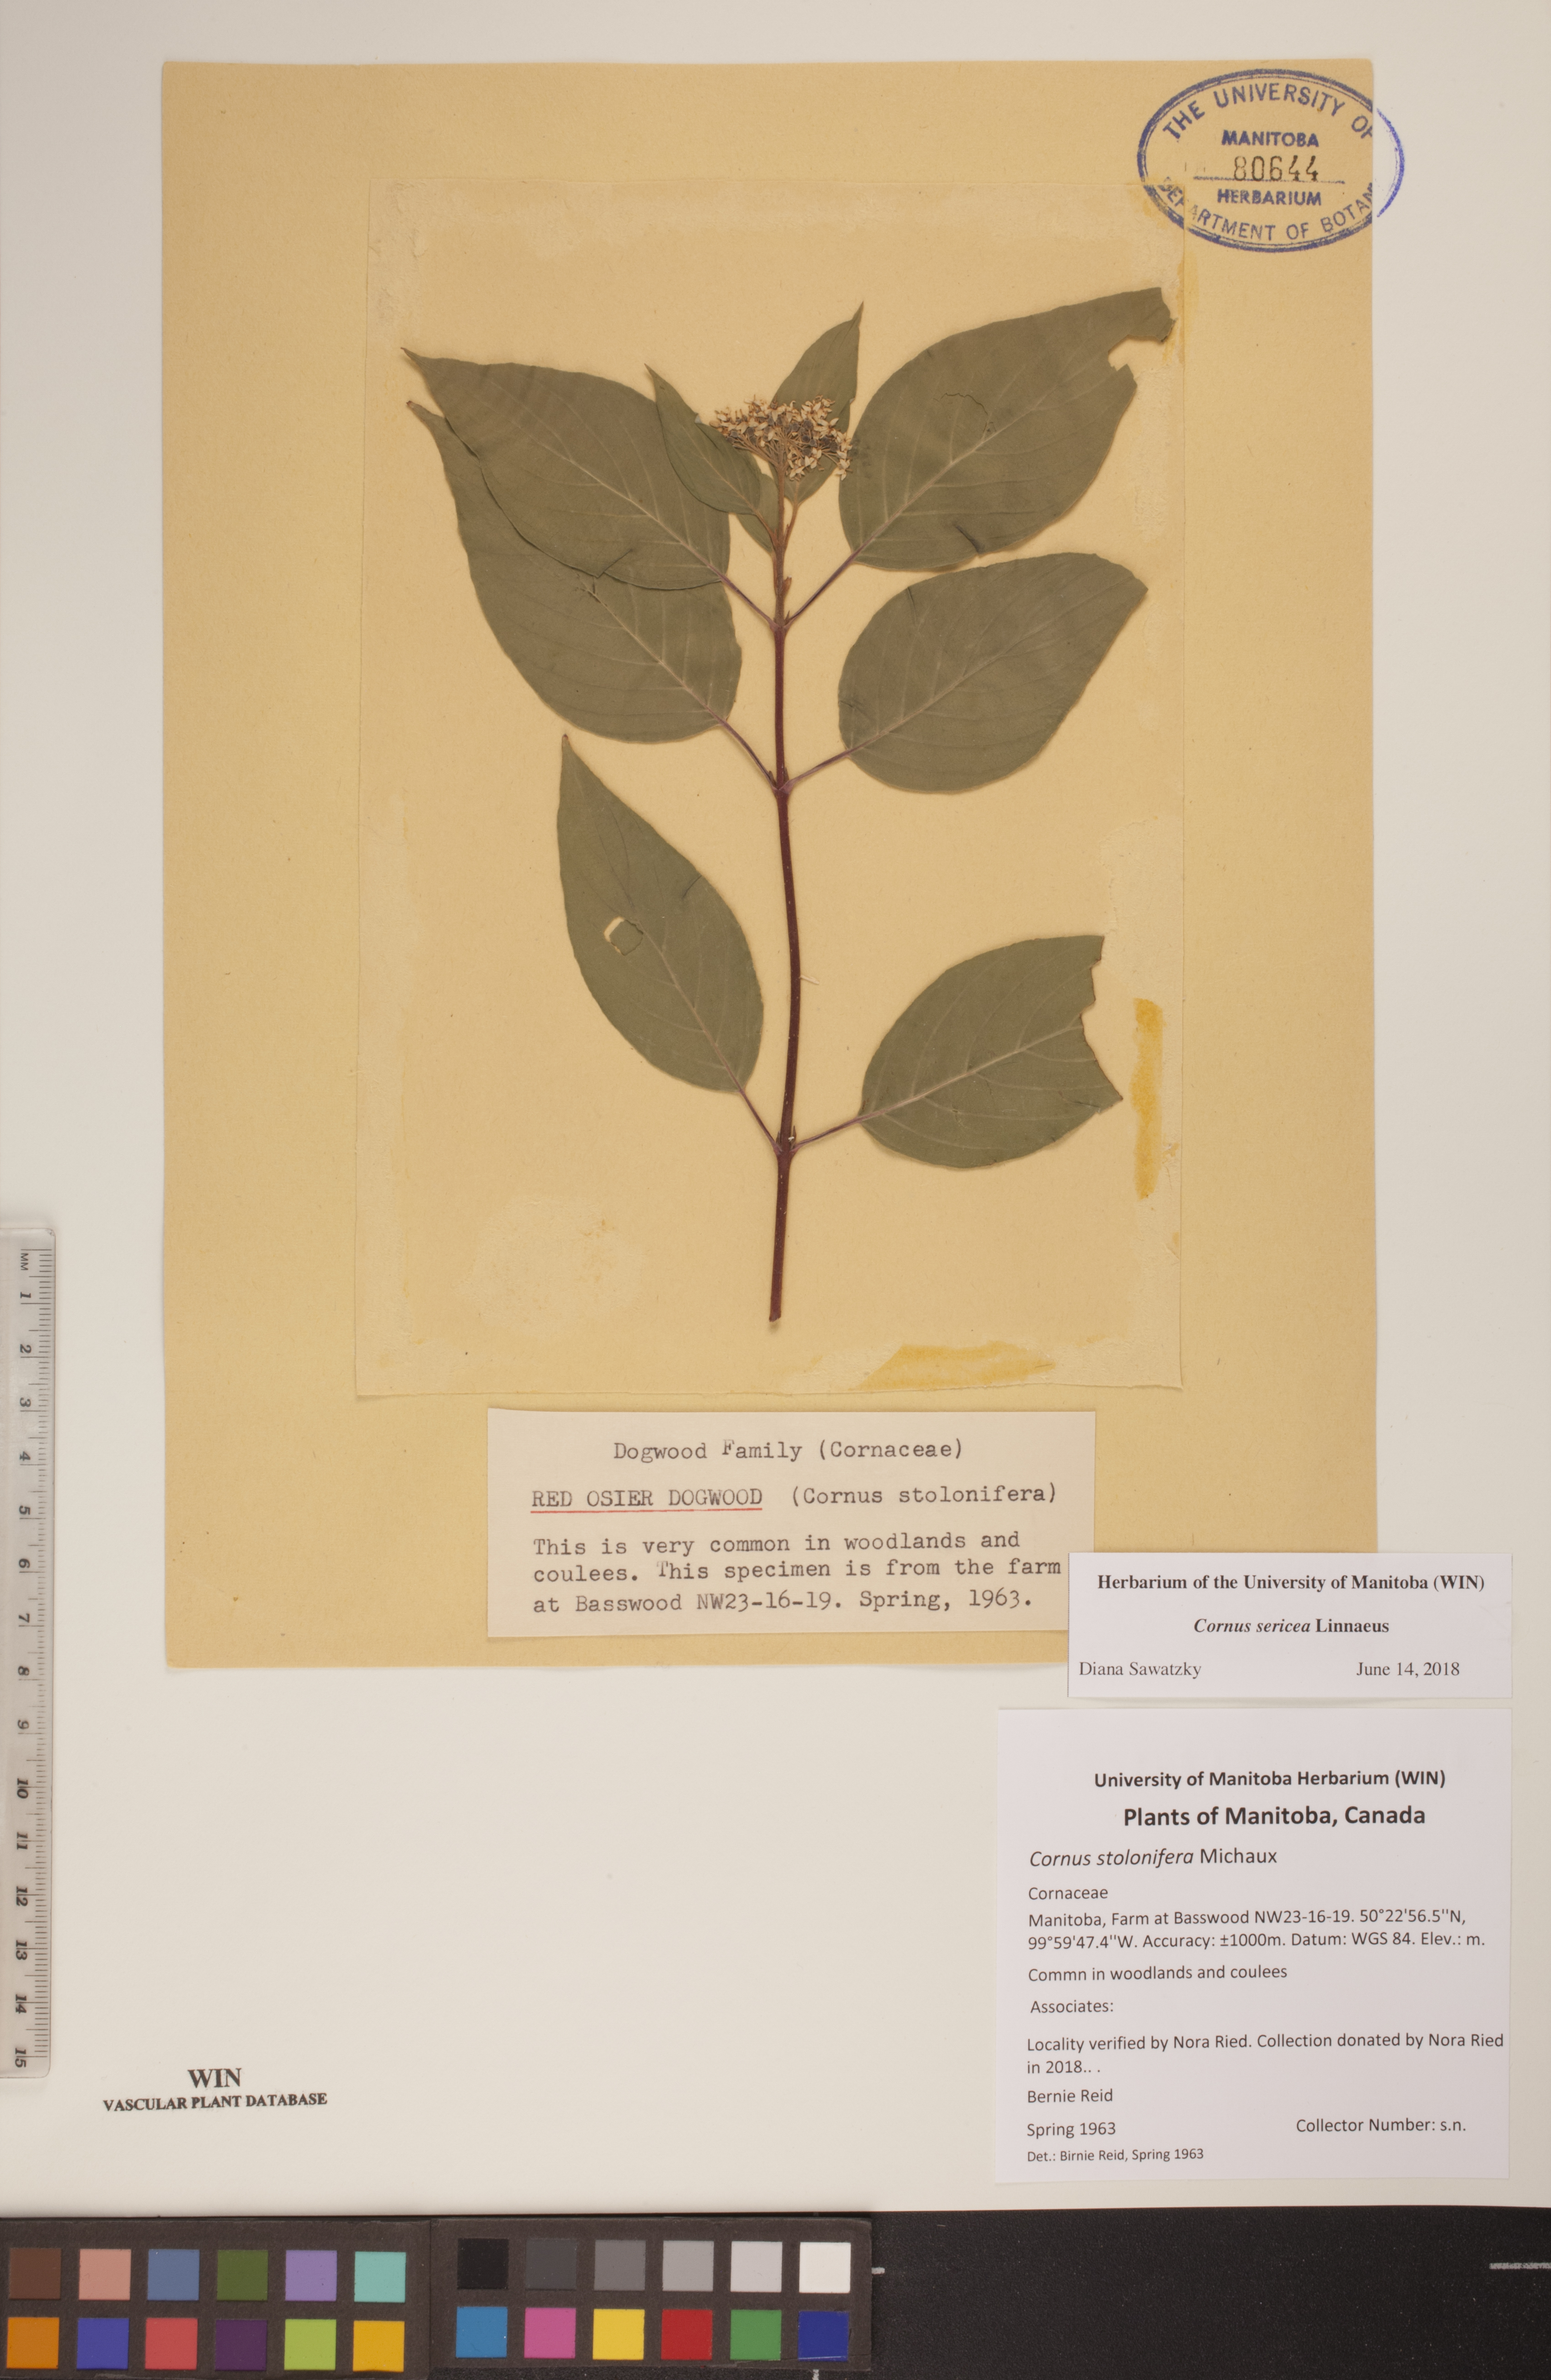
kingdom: Plantae
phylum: Tracheophyta
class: Magnoliopsida
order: Cornales
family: Cornaceae
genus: Cornus
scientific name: Cornus sericea
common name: Red-osier dogwood
